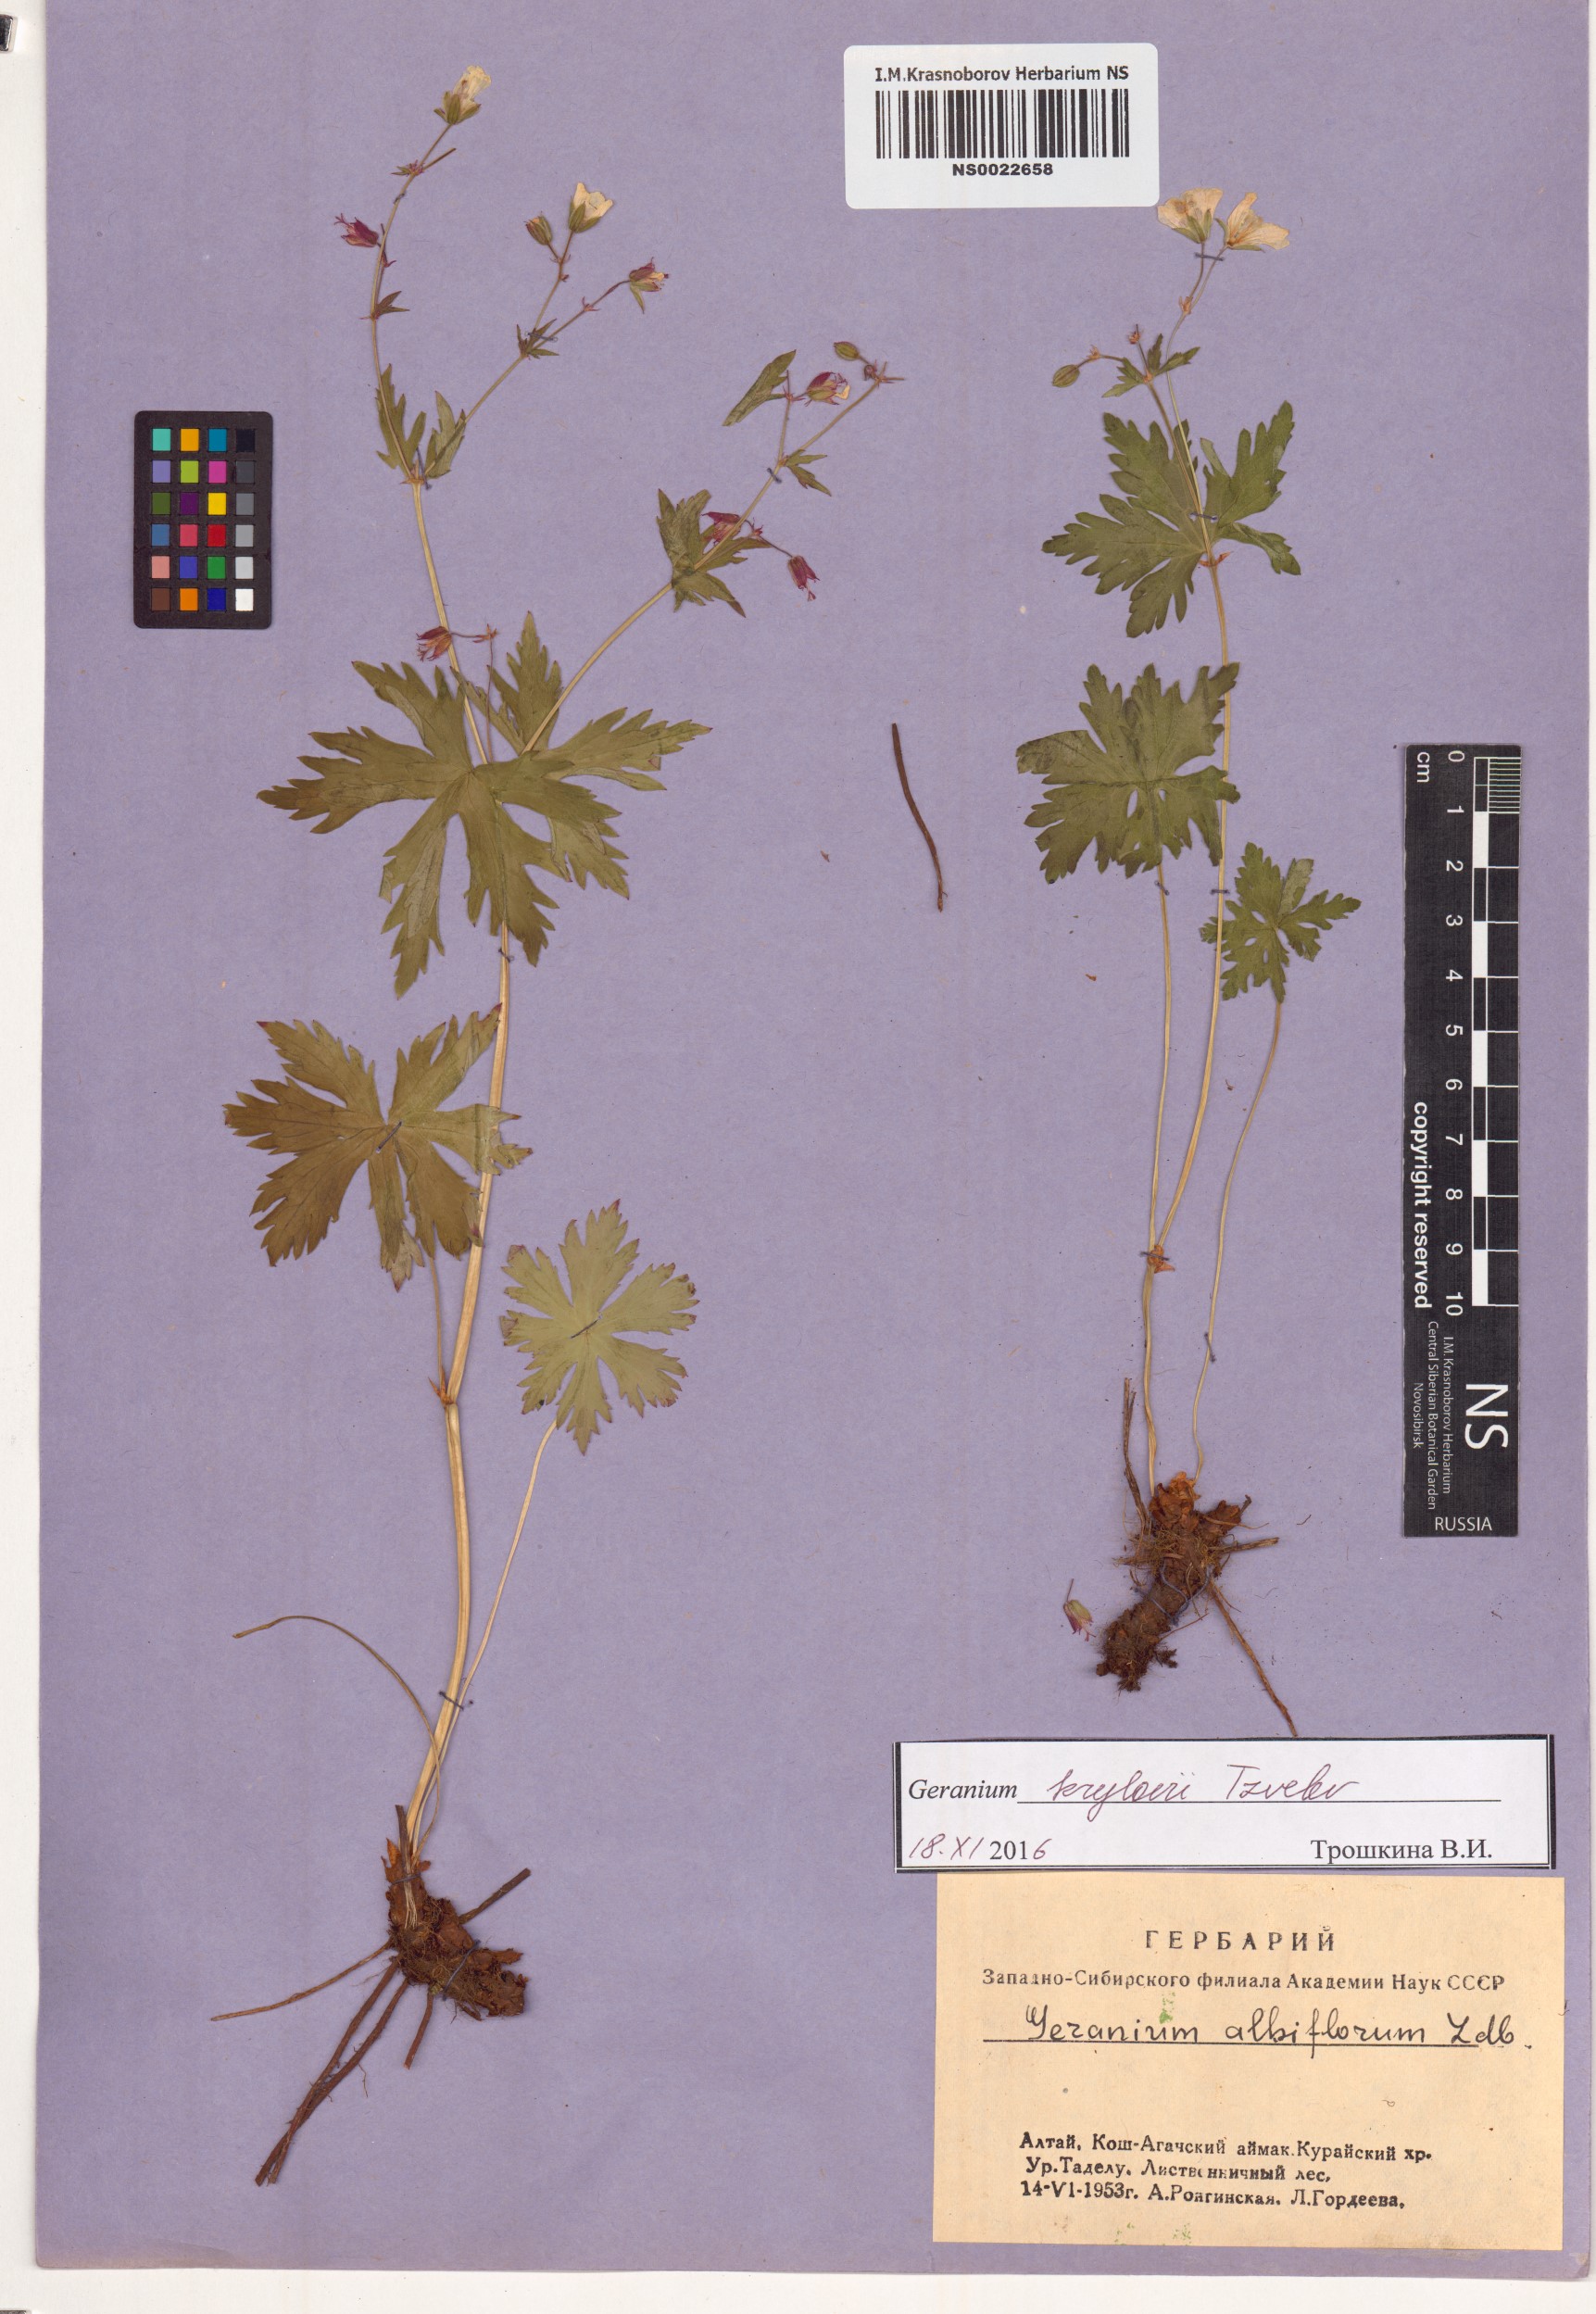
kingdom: Plantae
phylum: Tracheophyta
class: Magnoliopsida
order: Geraniales
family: Geraniaceae
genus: Geranium
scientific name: Geranium sylvaticum
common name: Wood crane's-bill
